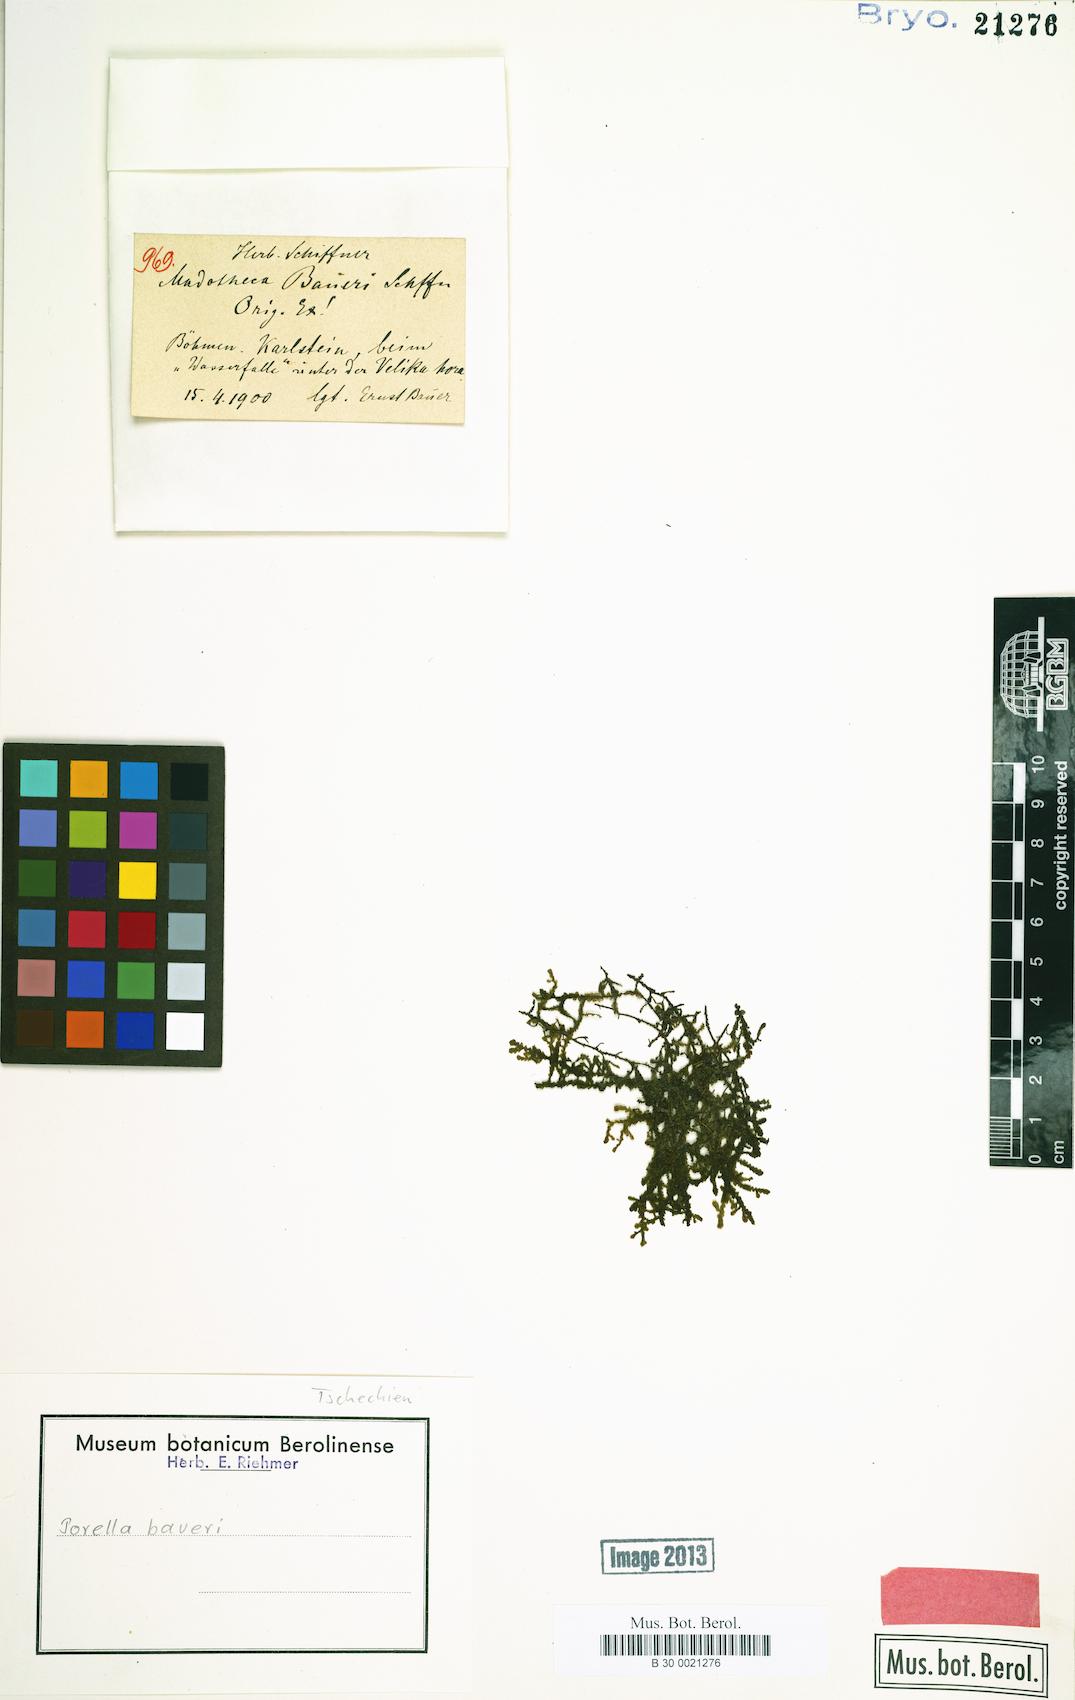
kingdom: Plantae
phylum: Marchantiophyta
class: Jungermanniopsida
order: Porellales
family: Porellaceae
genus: Porella
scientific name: Porella baueri
